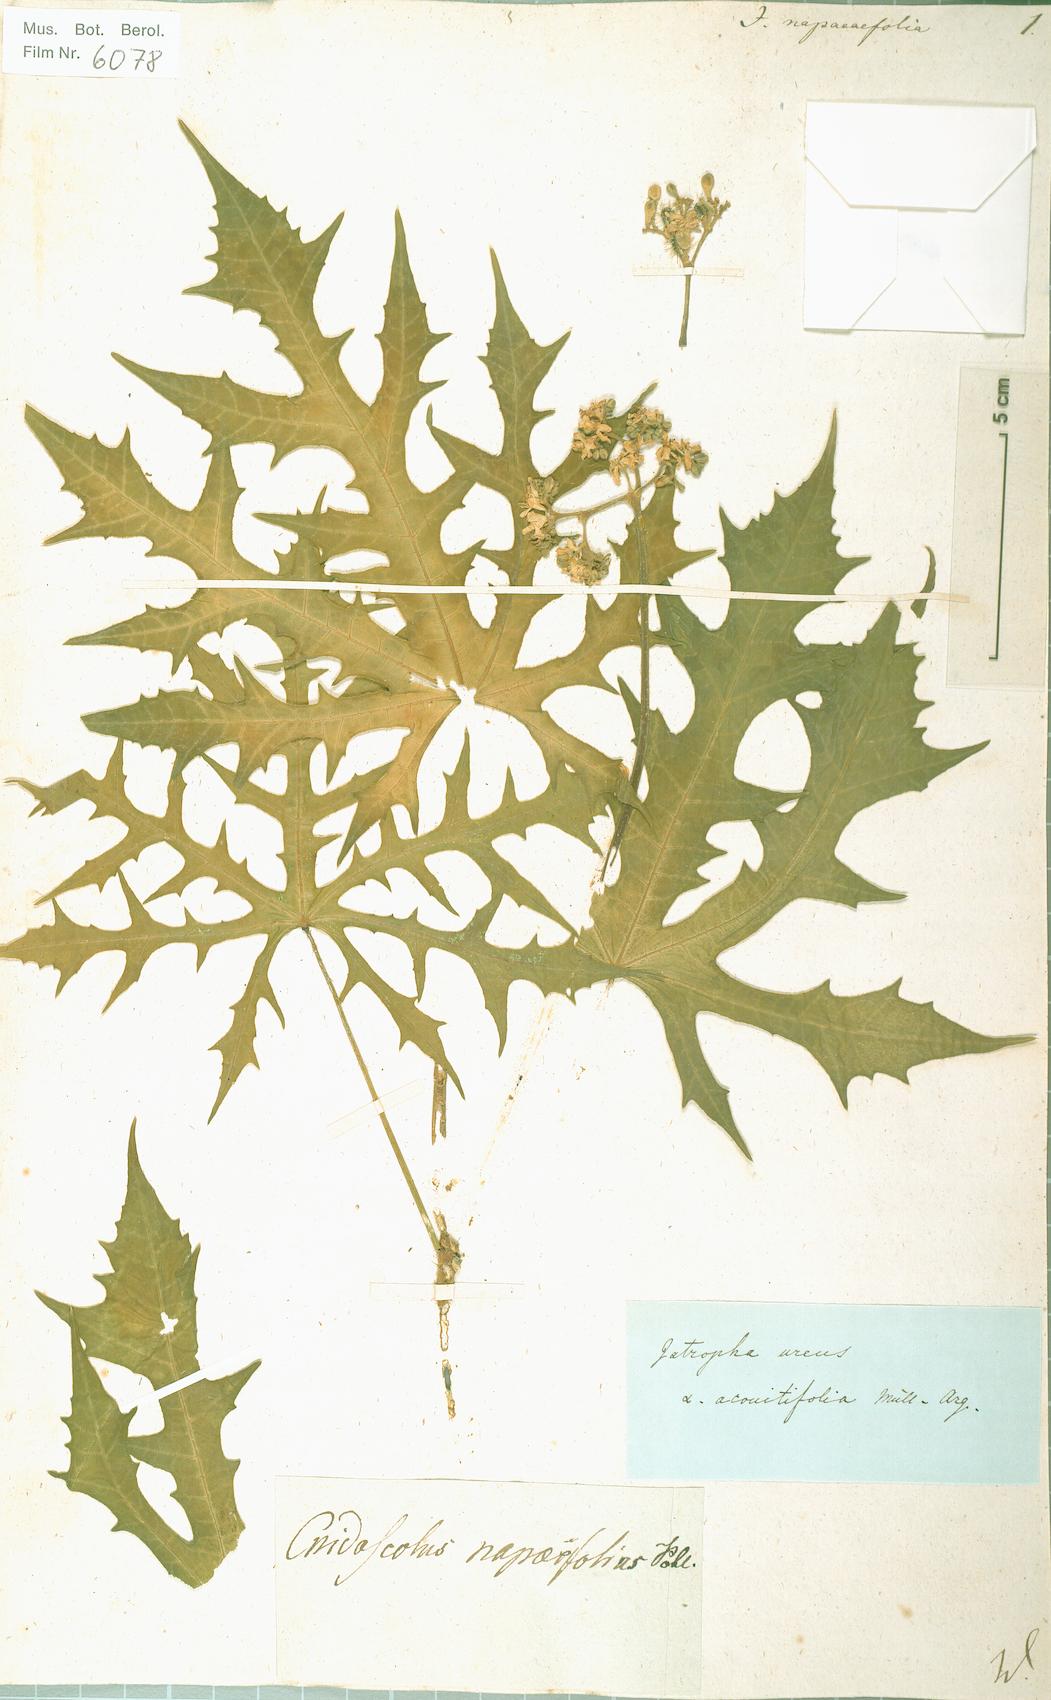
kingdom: Plantae
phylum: Tracheophyta
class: Magnoliopsida
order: Malpighiales
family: Euphorbiaceae
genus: Jatropha
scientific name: Jatropha napaeifolia
